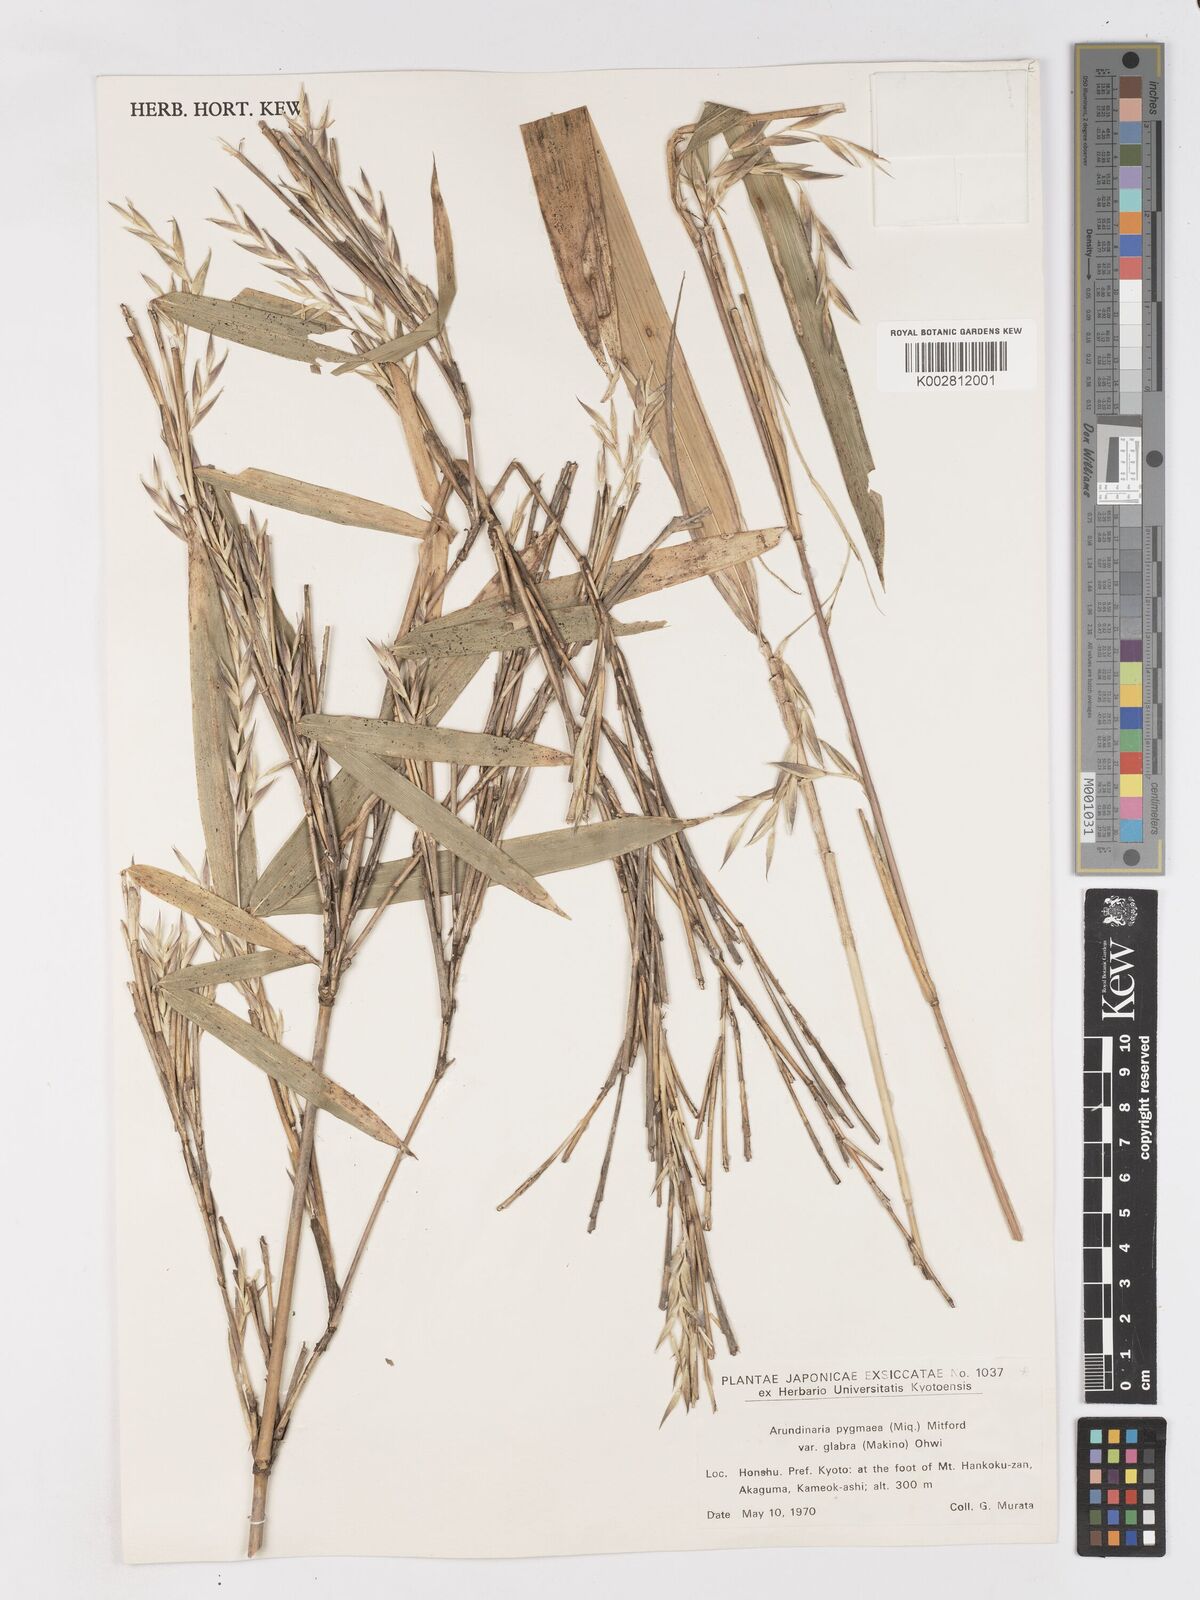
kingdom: Plantae
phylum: Tracheophyta
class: Liliopsida
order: Poales
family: Poaceae
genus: Pleioblastus
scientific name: Pleioblastus variegatus
